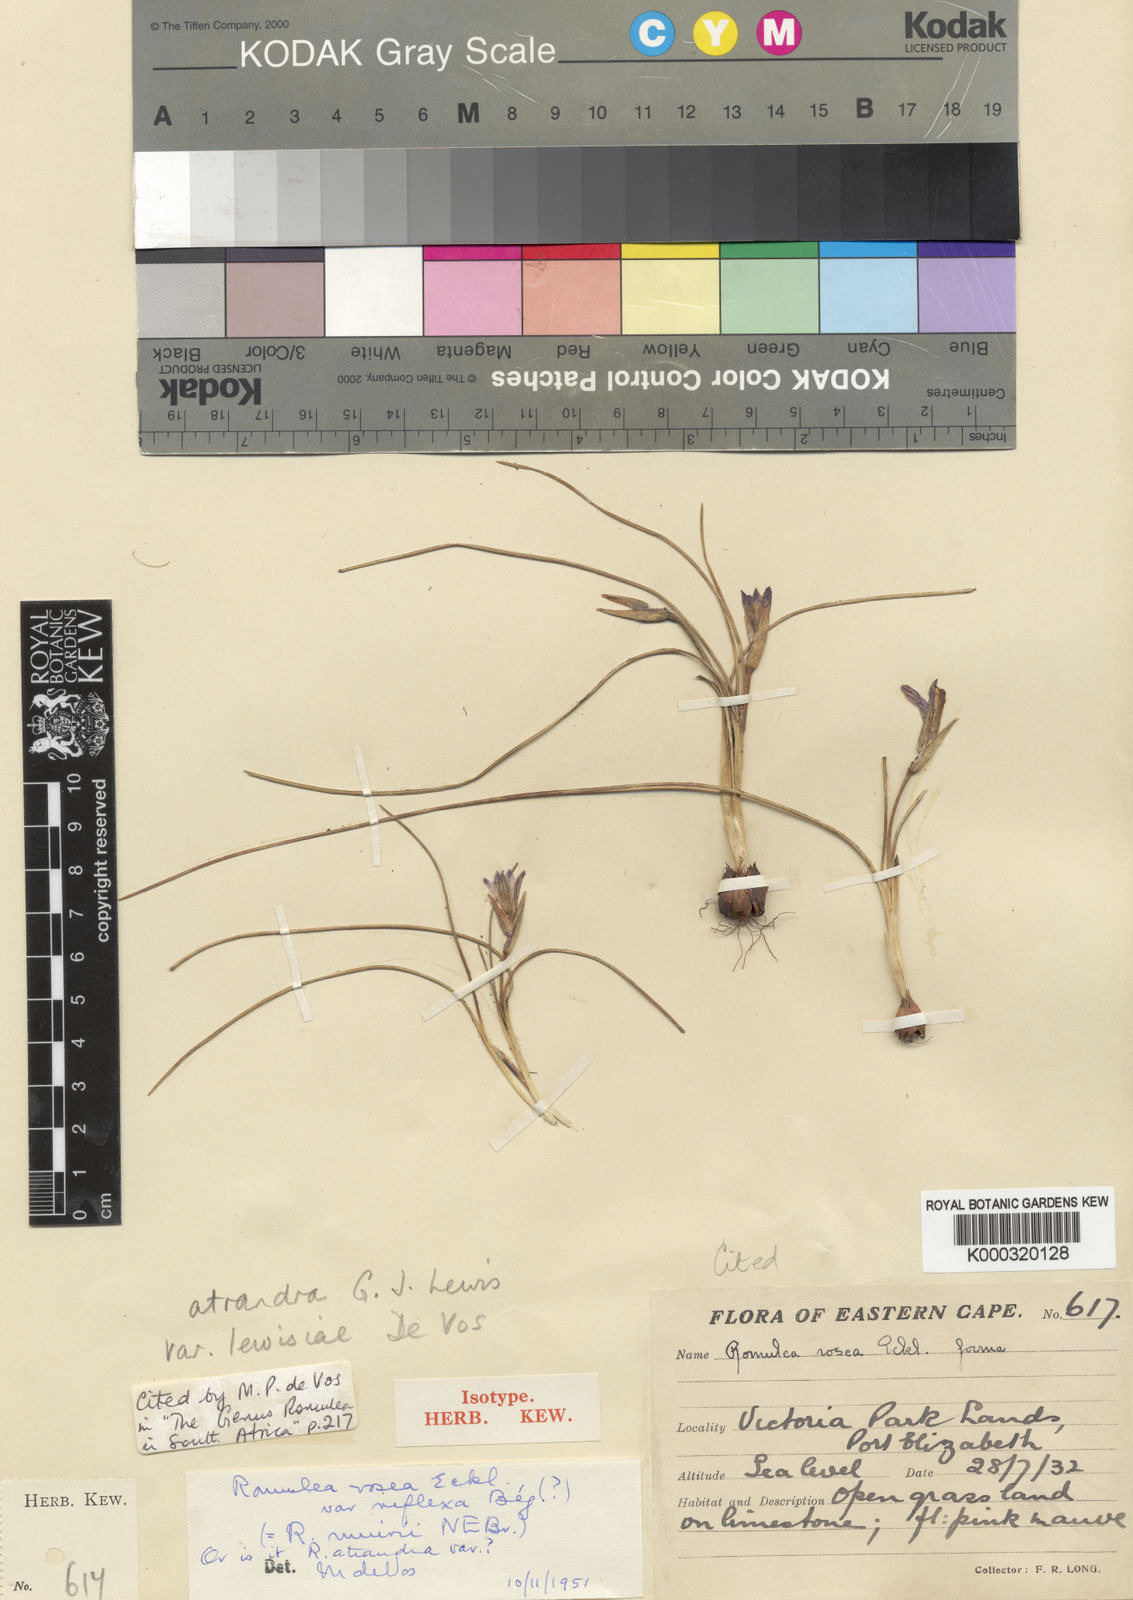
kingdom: Plantae
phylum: Tracheophyta
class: Liliopsida
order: Asparagales
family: Iridaceae
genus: Romulea
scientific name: Romulea atrandra
